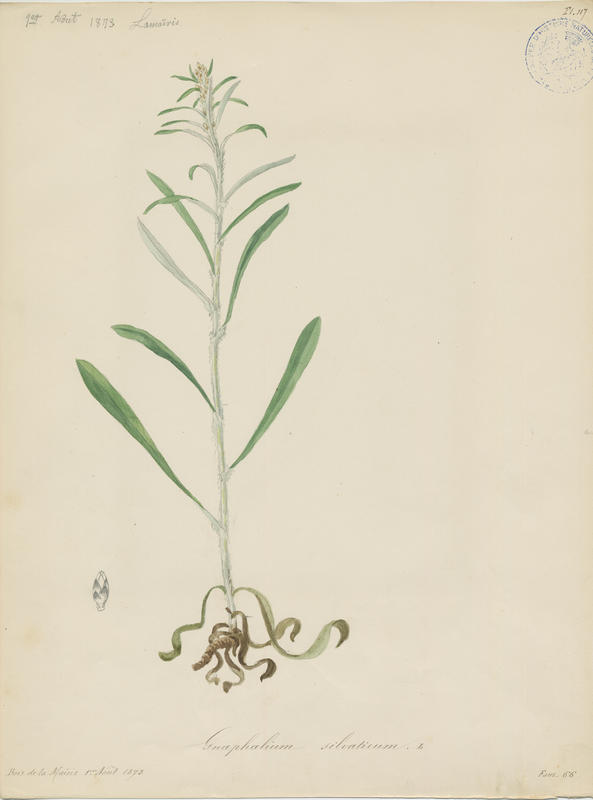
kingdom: Plantae
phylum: Tracheophyta
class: Magnoliopsida
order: Asterales
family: Asteraceae
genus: Omalotheca
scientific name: Omalotheca sylvatica
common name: Heath cudweed
